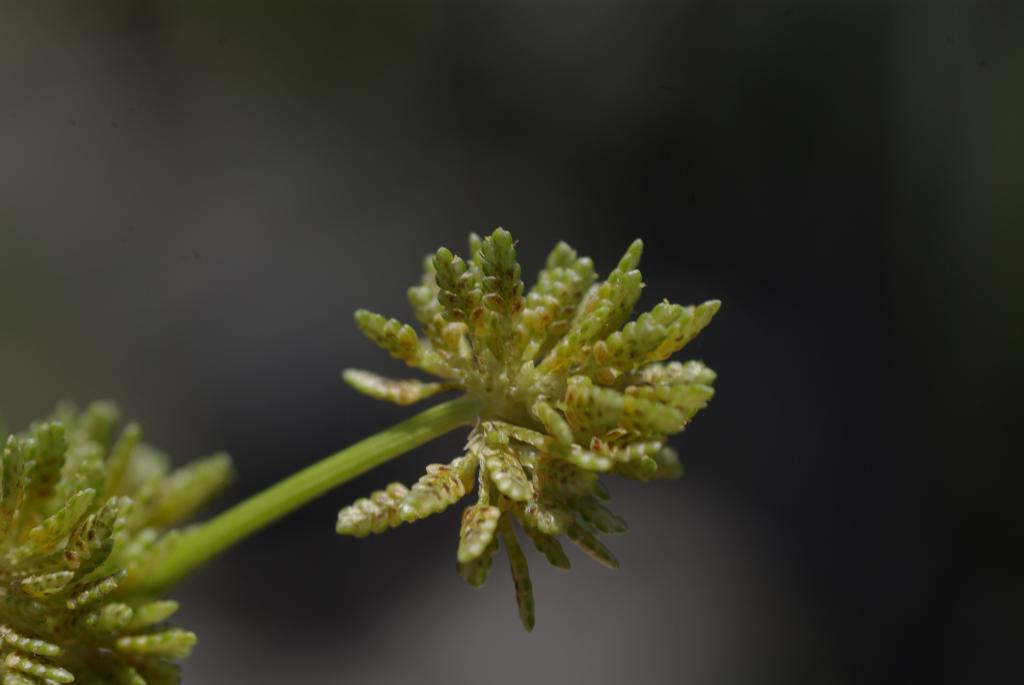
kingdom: Plantae
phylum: Tracheophyta
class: Liliopsida
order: Poales
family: Cyperaceae
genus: Cyperus
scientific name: Cyperus difformis
